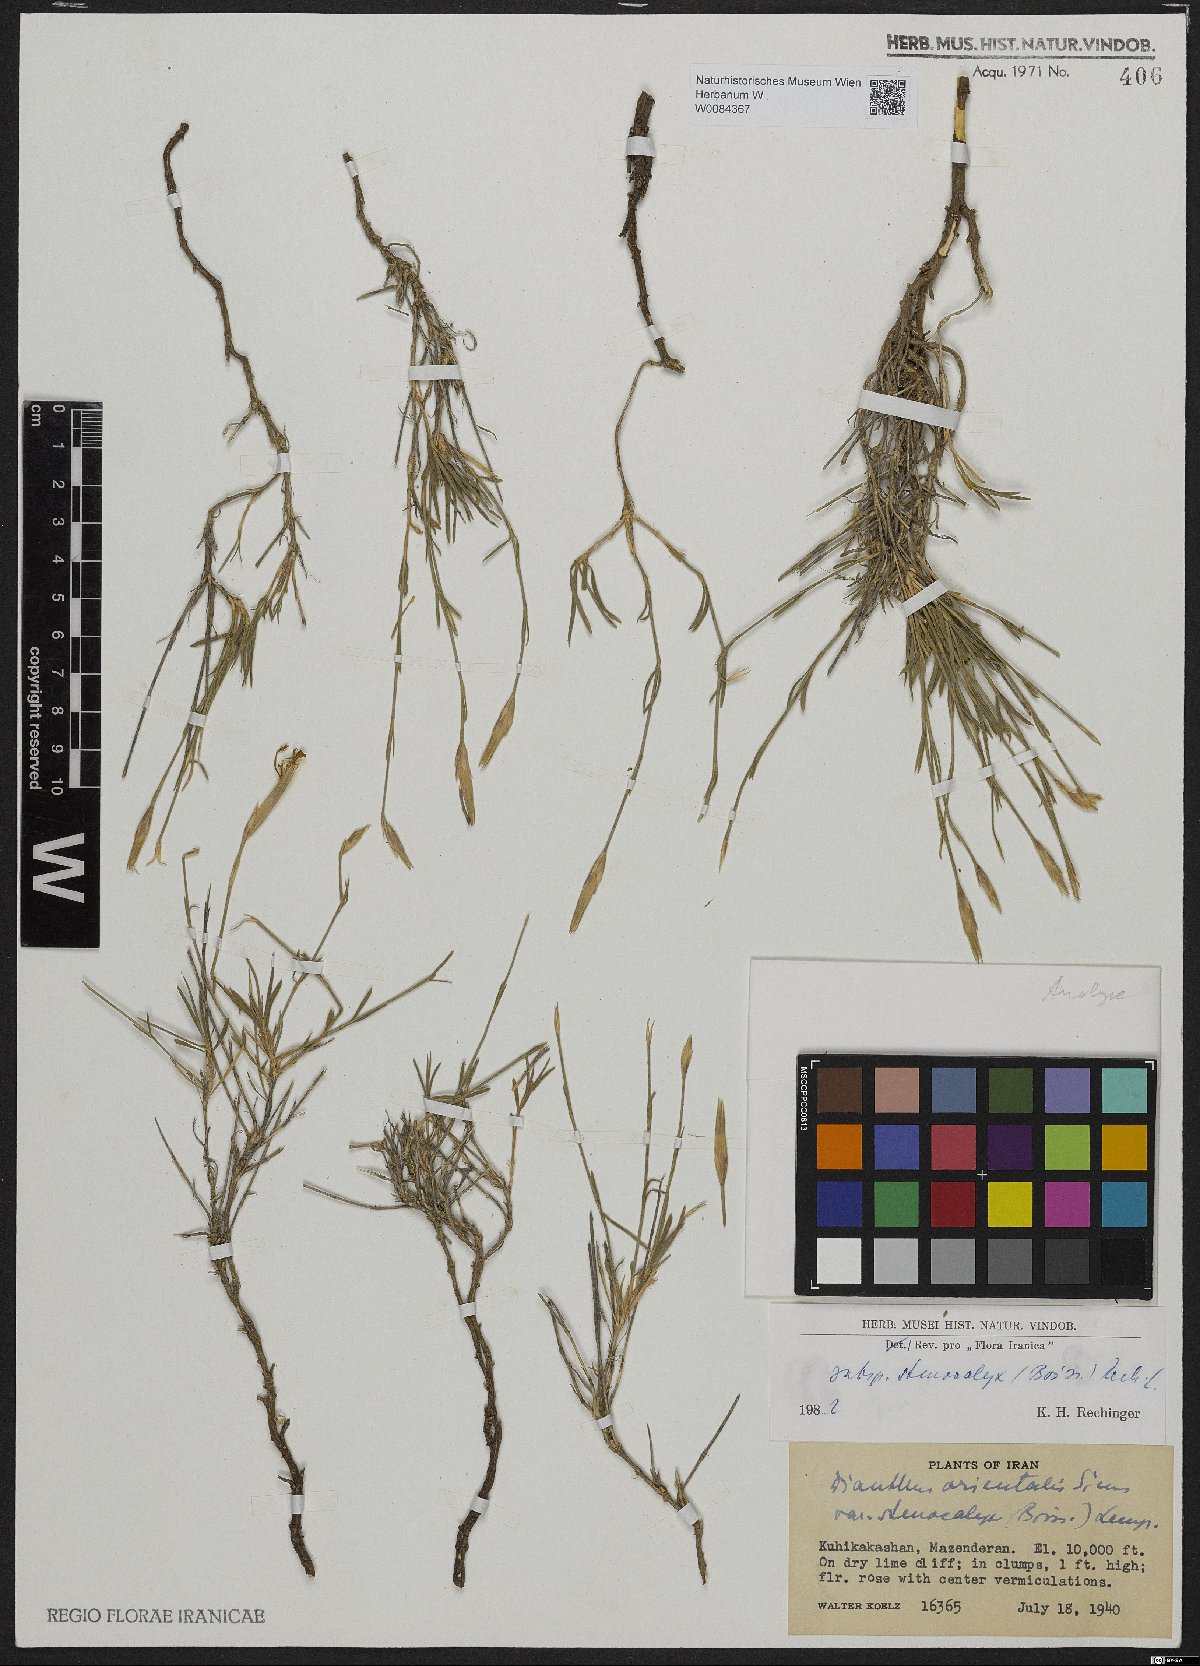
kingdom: Plantae
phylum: Tracheophyta
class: Magnoliopsida
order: Caryophyllales
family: Caryophyllaceae
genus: Dianthus
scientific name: Dianthus orientalis
